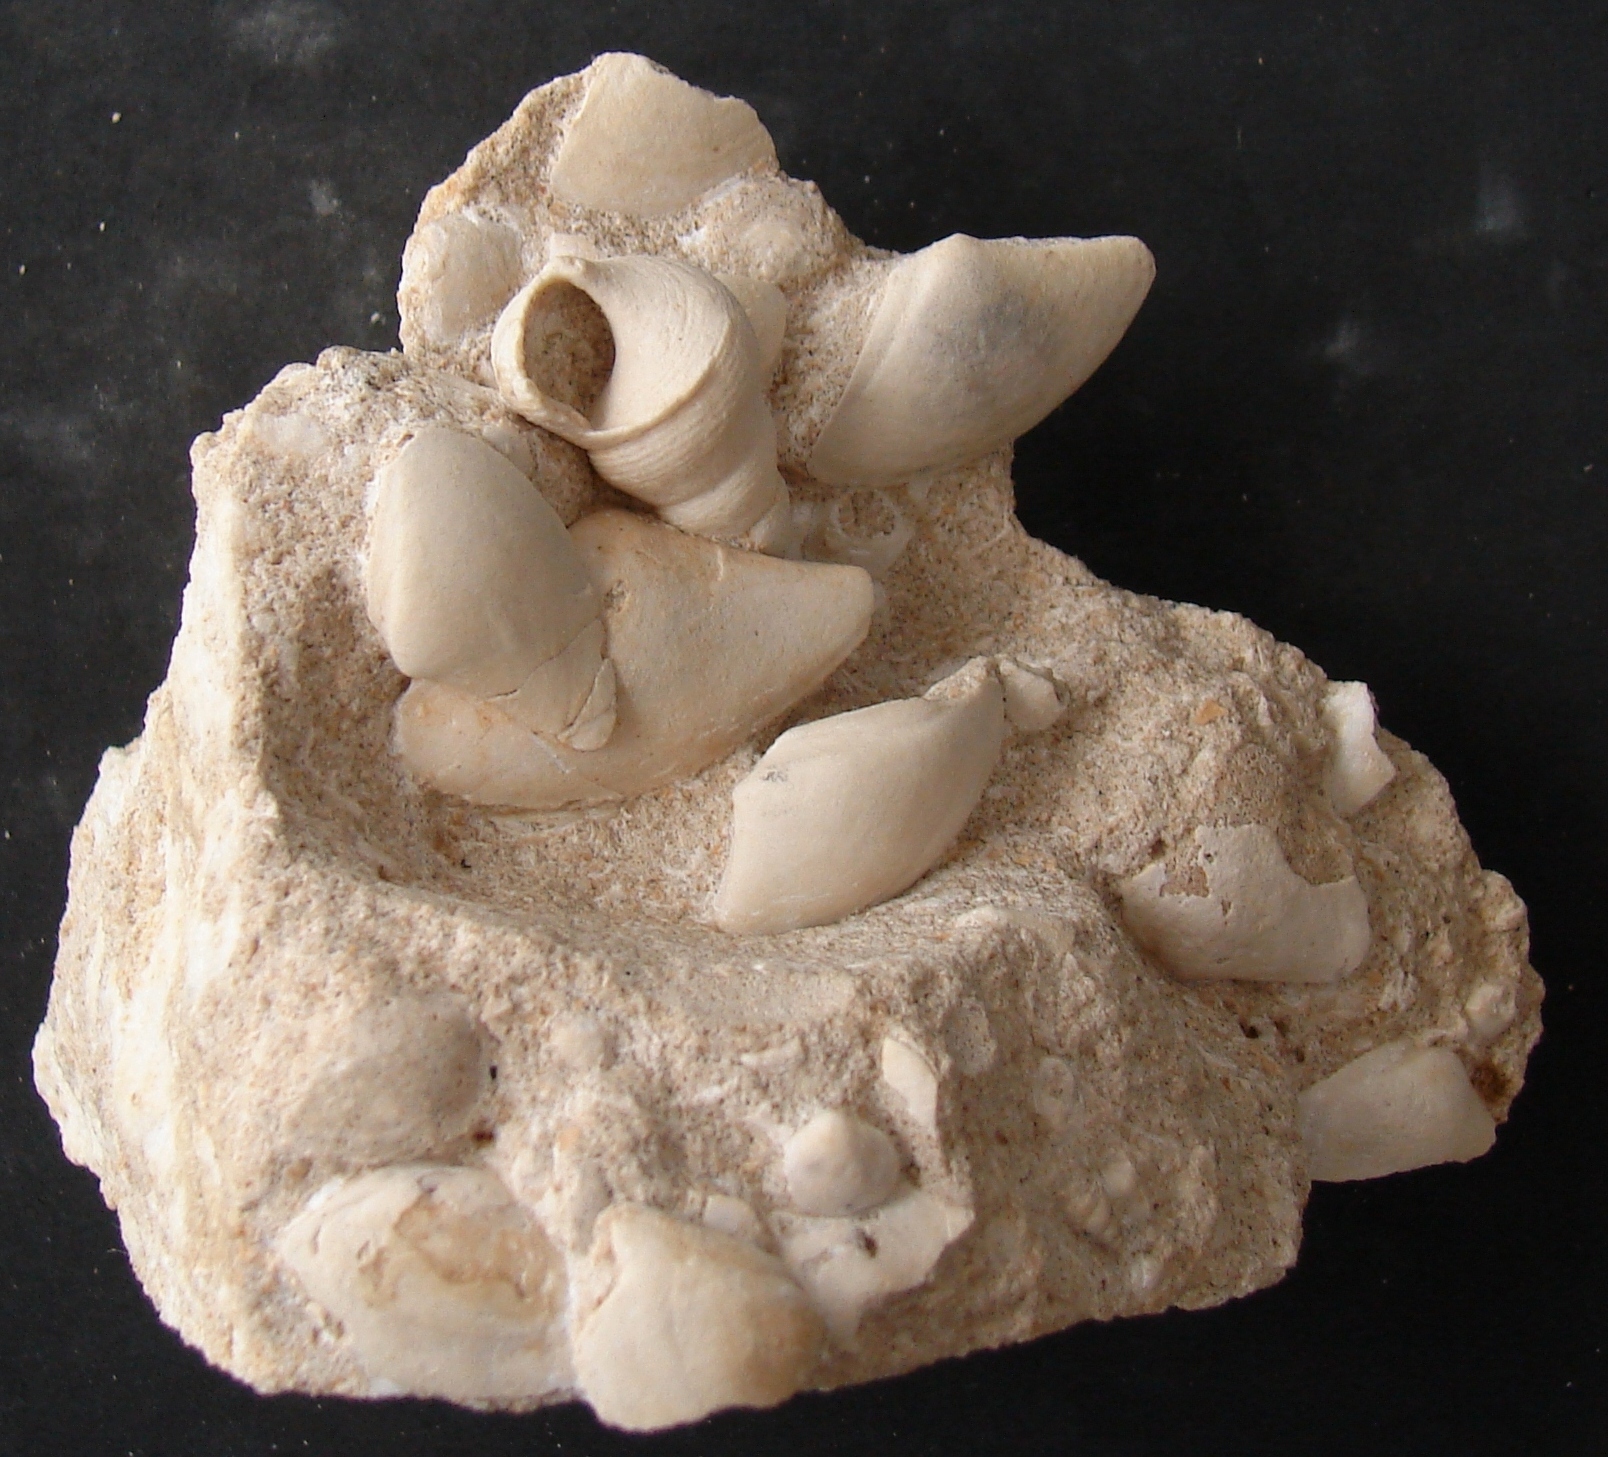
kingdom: Animalia
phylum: Mollusca
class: Gastropoda
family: Pseudomelaniidae
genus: Bourgetia
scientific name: Bourgetia
